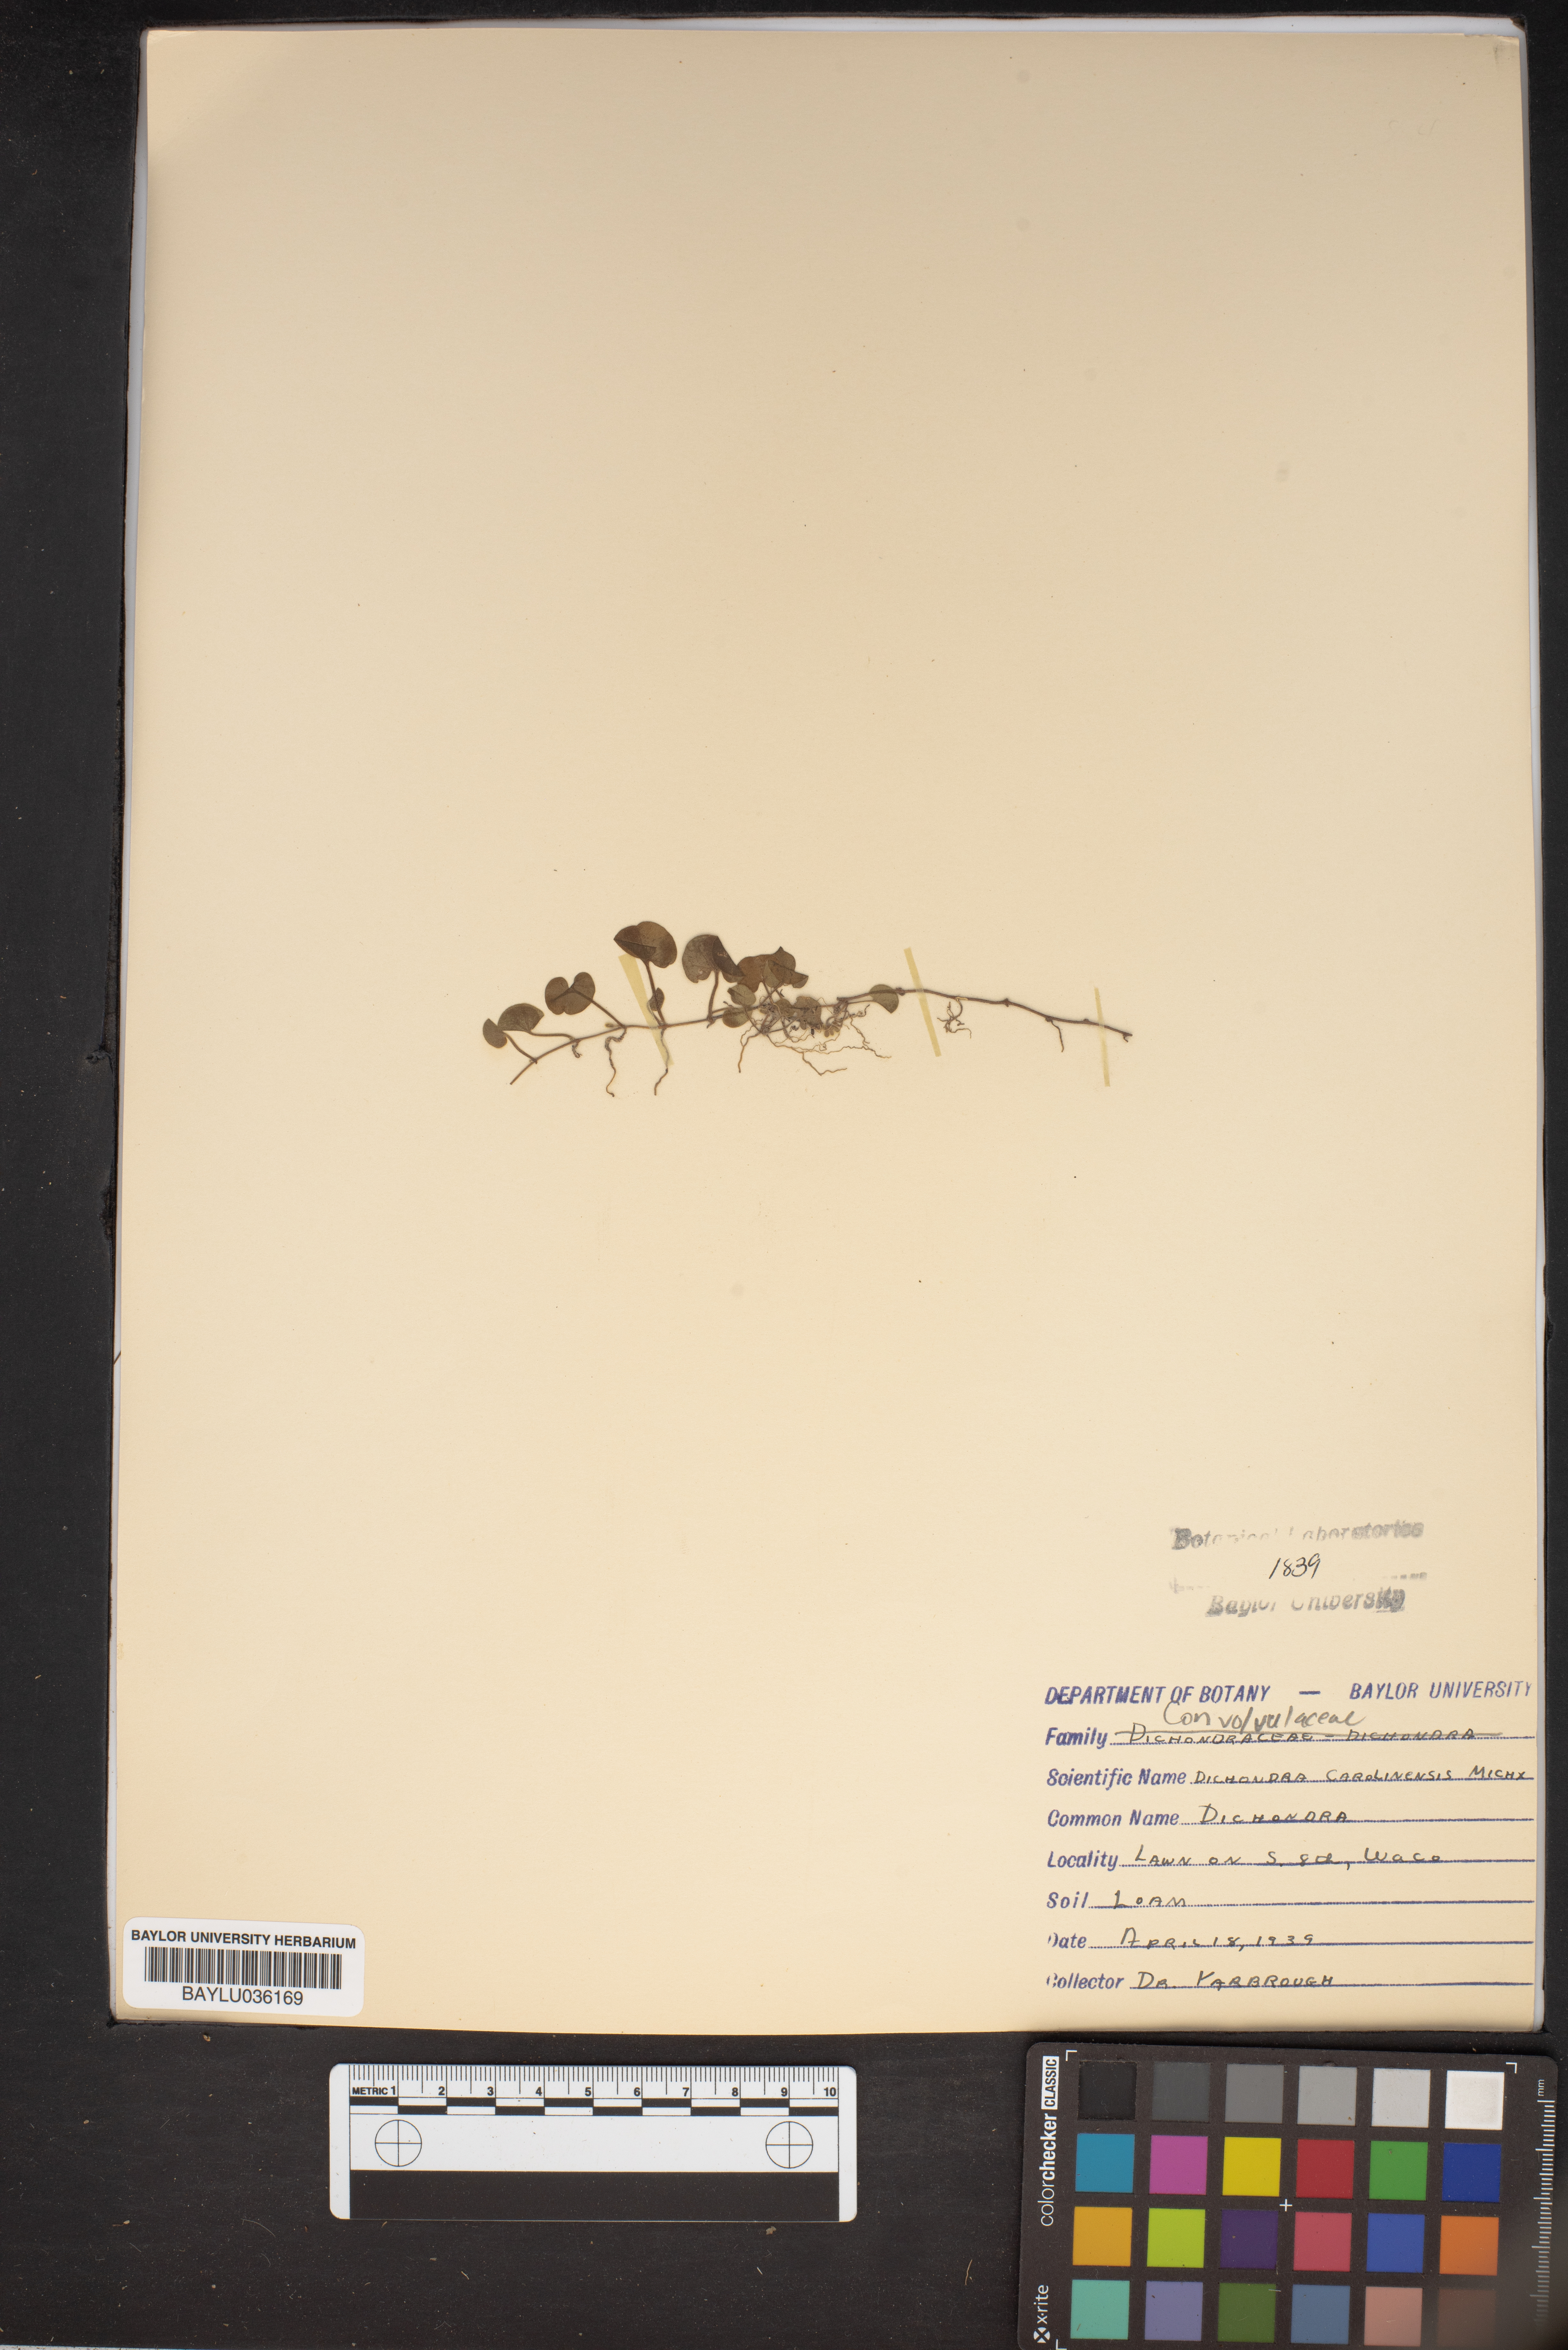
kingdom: Plantae
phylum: Tracheophyta
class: Magnoliopsida
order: Solanales
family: Convolvulaceae
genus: Dichondra
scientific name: Dichondra carolinensis
